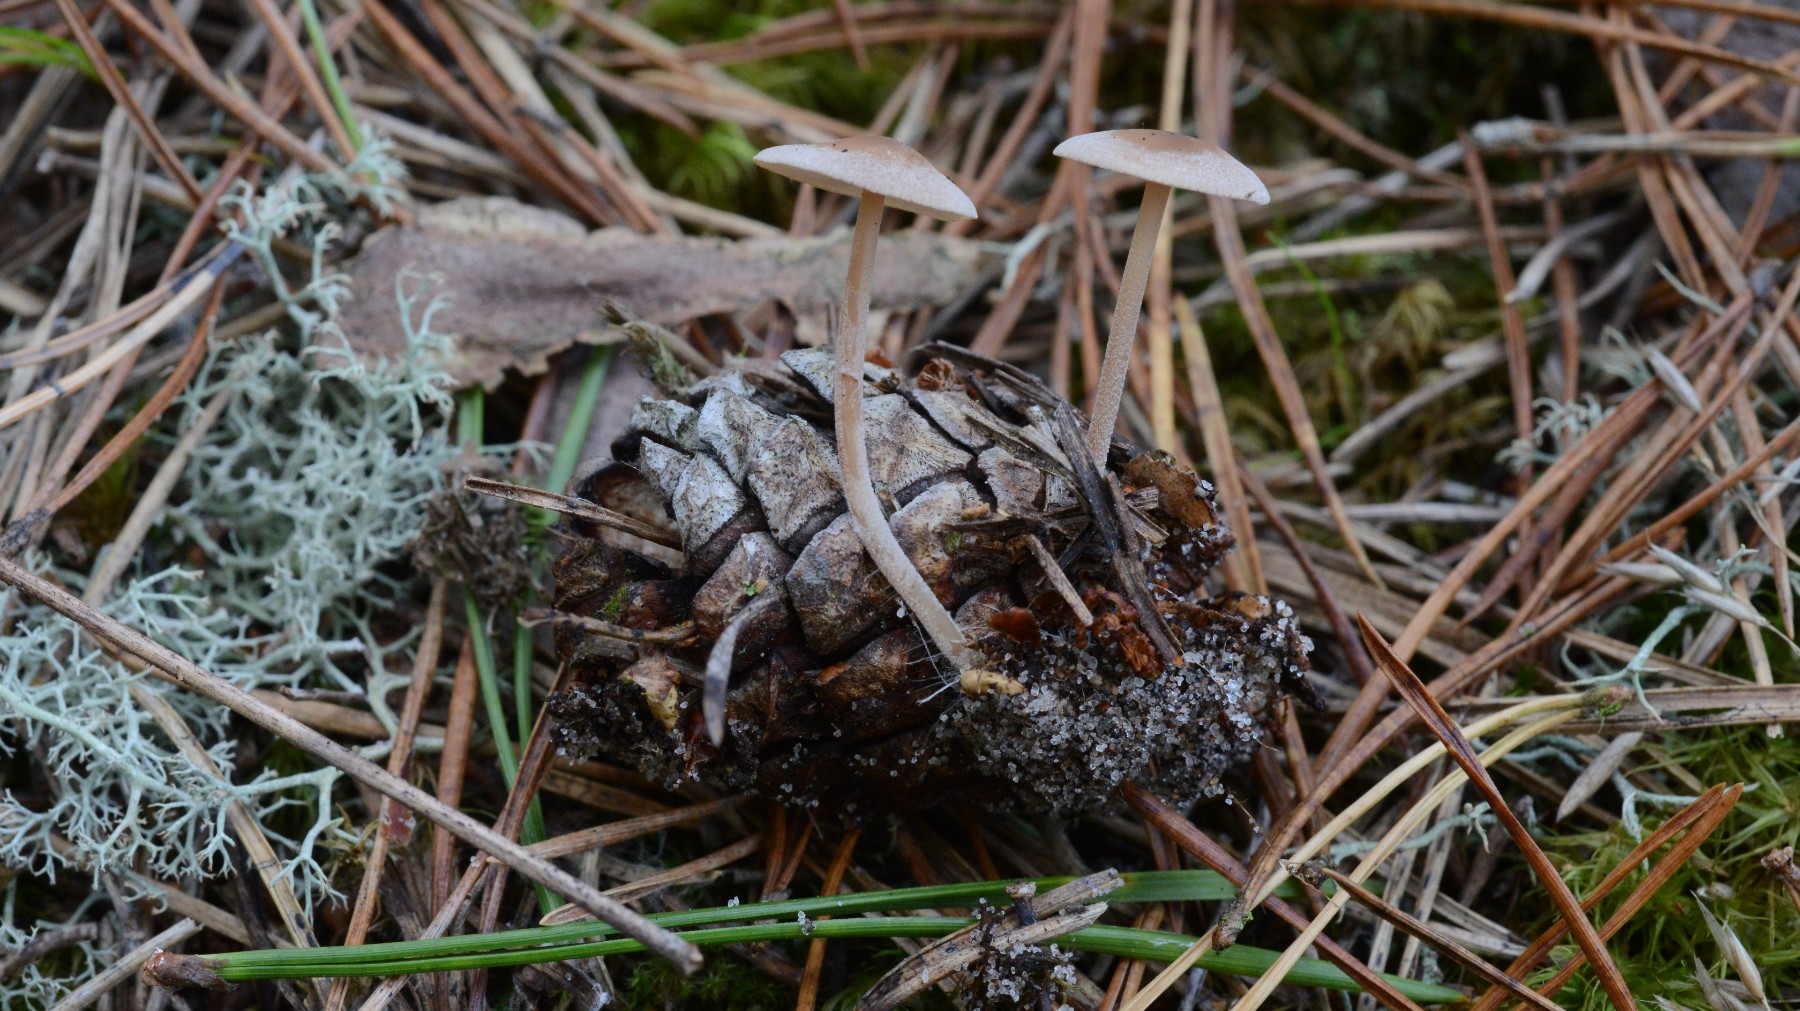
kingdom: Fungi
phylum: Basidiomycota
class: Agaricomycetes
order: Agaricales
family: Marasmiaceae
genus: Baeospora
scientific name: Baeospora myosura
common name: koglebruskhat
